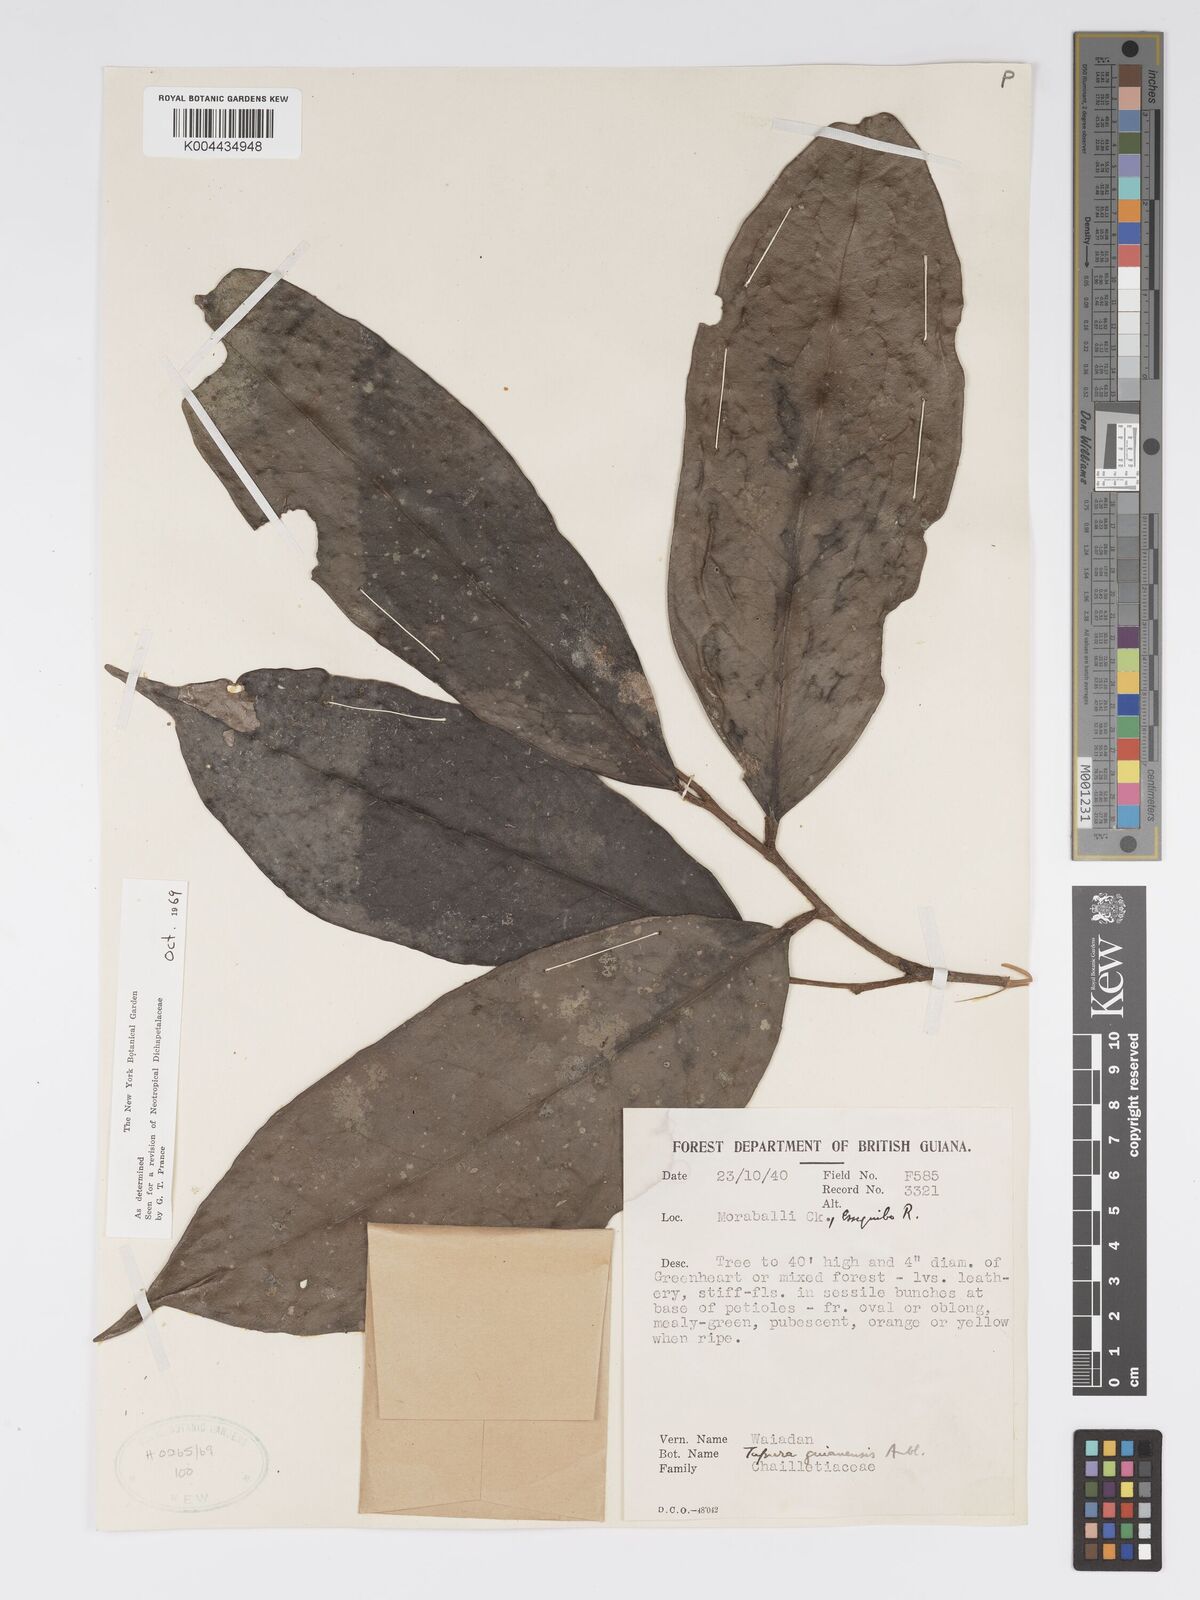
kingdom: Plantae
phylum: Tracheophyta
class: Magnoliopsida
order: Malpighiales
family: Dichapetalaceae
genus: Tapura
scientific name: Tapura guianensis
